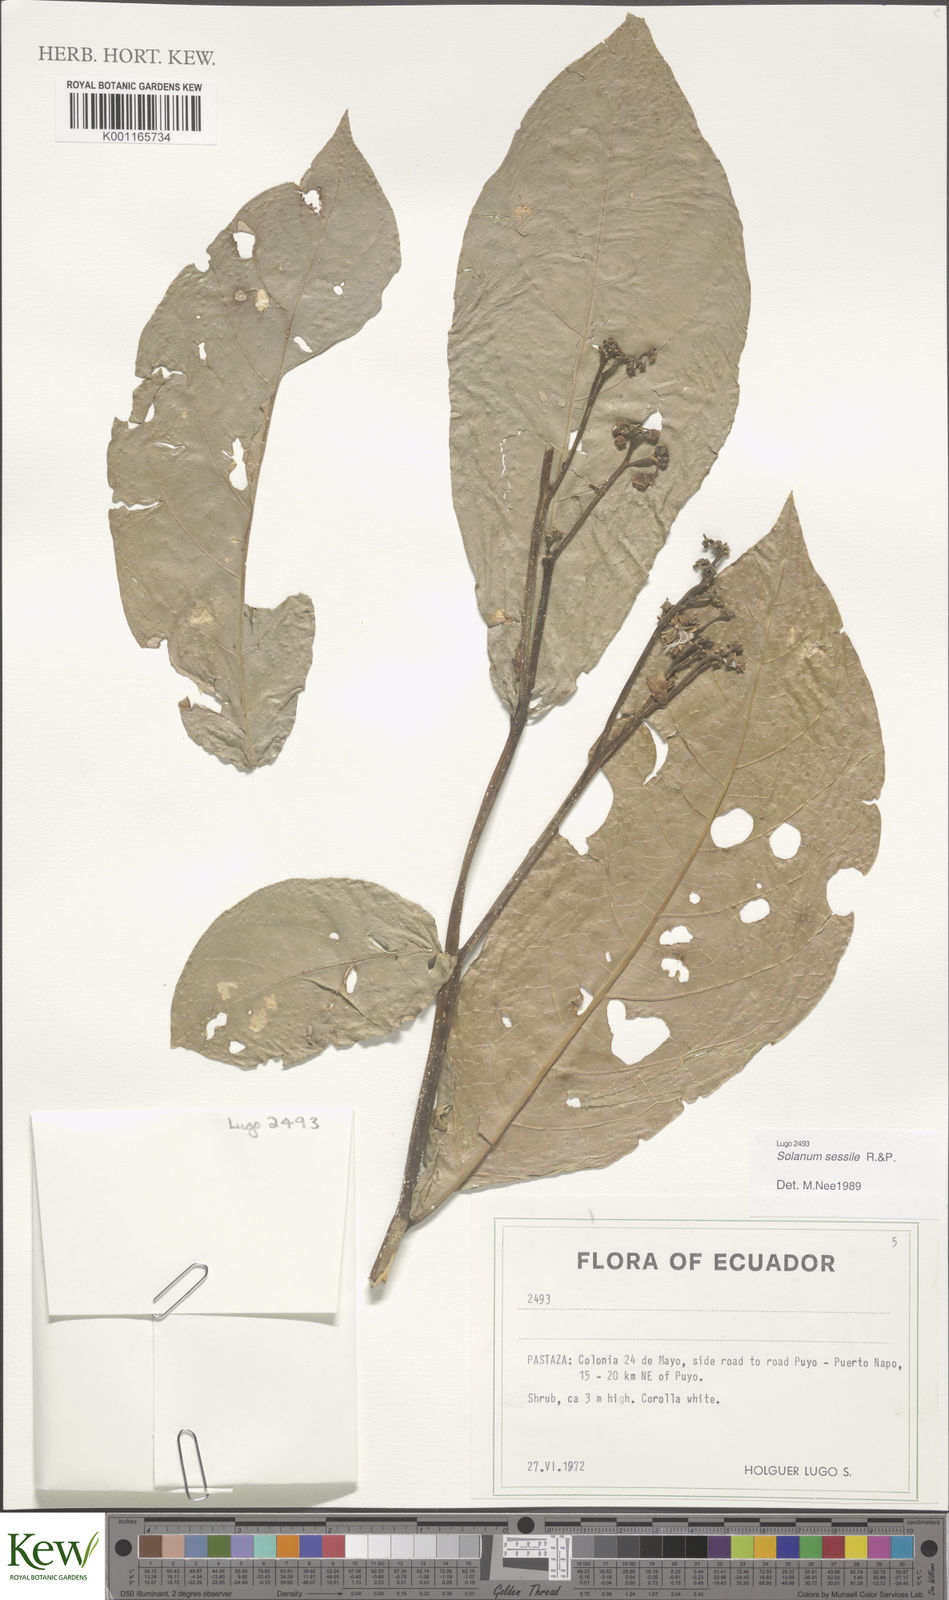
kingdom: Plantae
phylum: Tracheophyta
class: Magnoliopsida
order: Solanales
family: Solanaceae
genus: Solanum
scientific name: Solanum sessile
